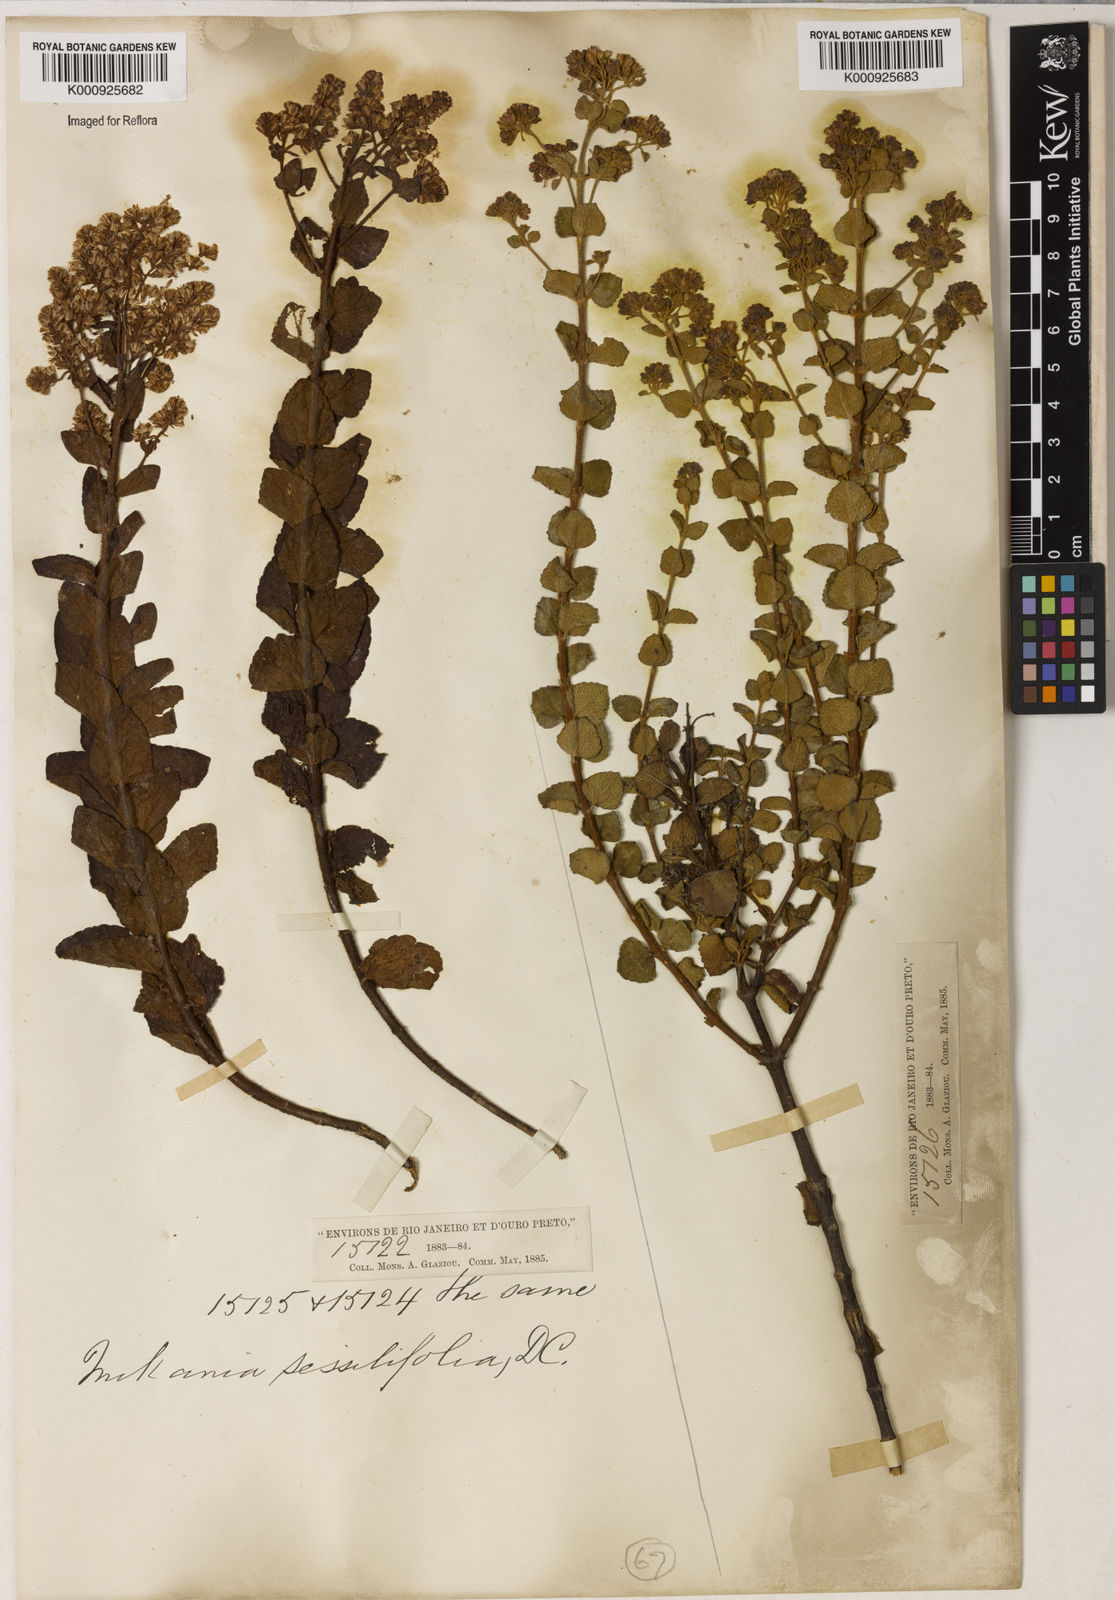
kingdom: Plantae
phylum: Tracheophyta
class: Magnoliopsida
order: Asterales
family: Asteraceae
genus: Mikania
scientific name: Mikania sessilifolia
